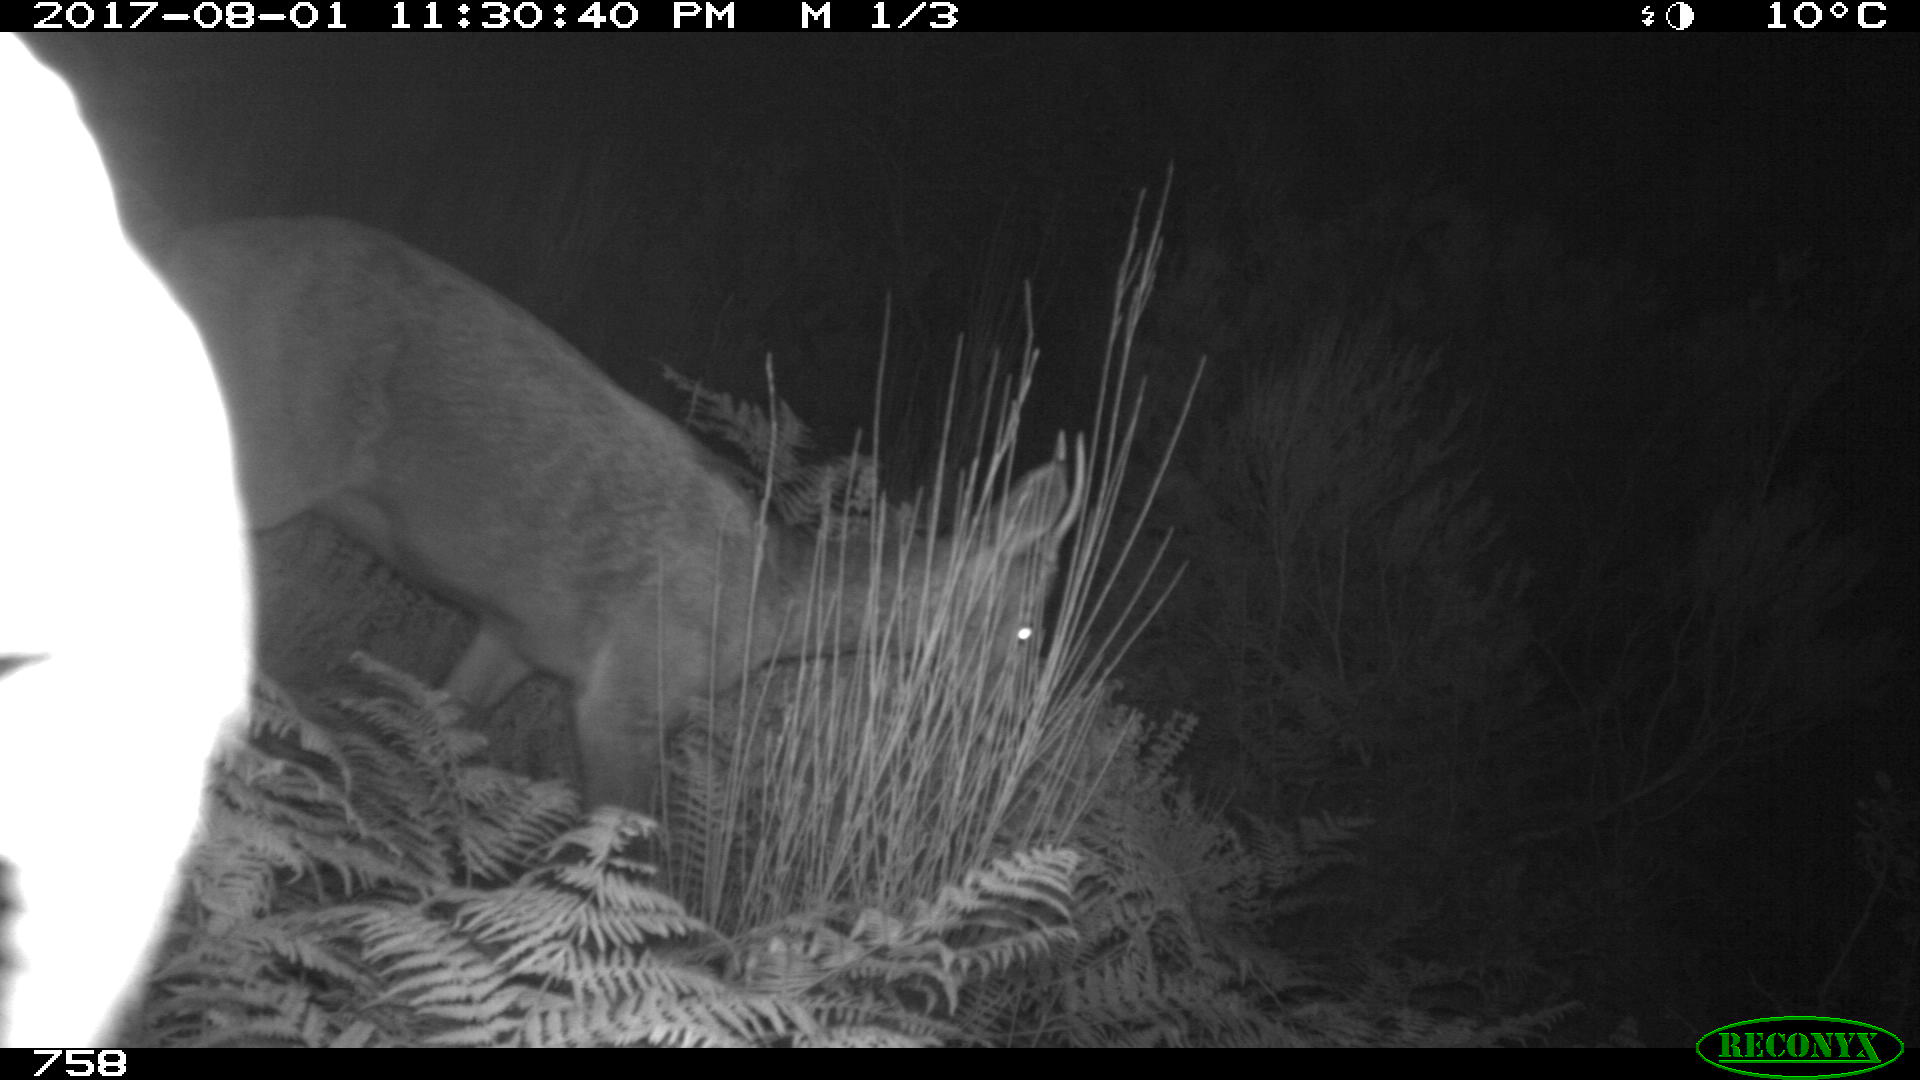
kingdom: Animalia
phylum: Chordata
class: Mammalia
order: Artiodactyla
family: Cervidae
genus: Capreolus
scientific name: Capreolus capreolus
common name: Western roe deer
